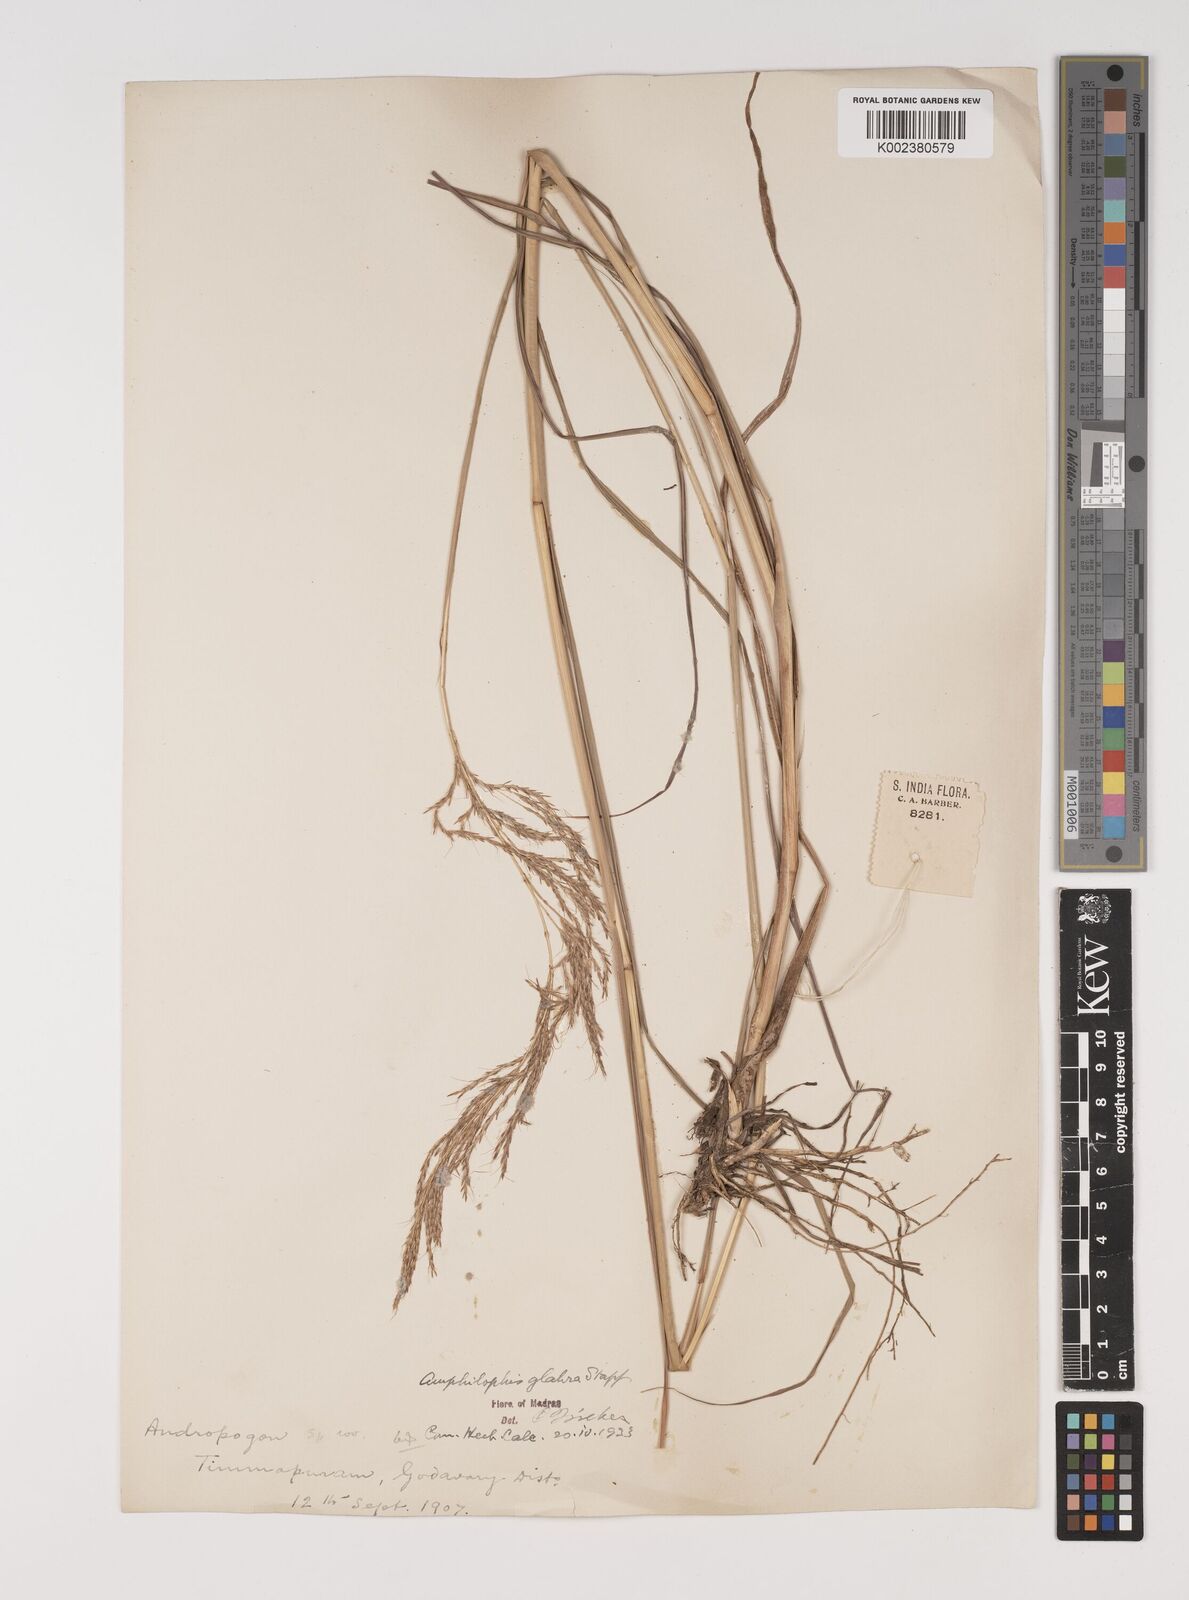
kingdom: Plantae
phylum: Tracheophyta
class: Liliopsida
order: Poales
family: Poaceae
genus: Bothriochloa
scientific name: Bothriochloa bladhii
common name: Caucasian bluestem
